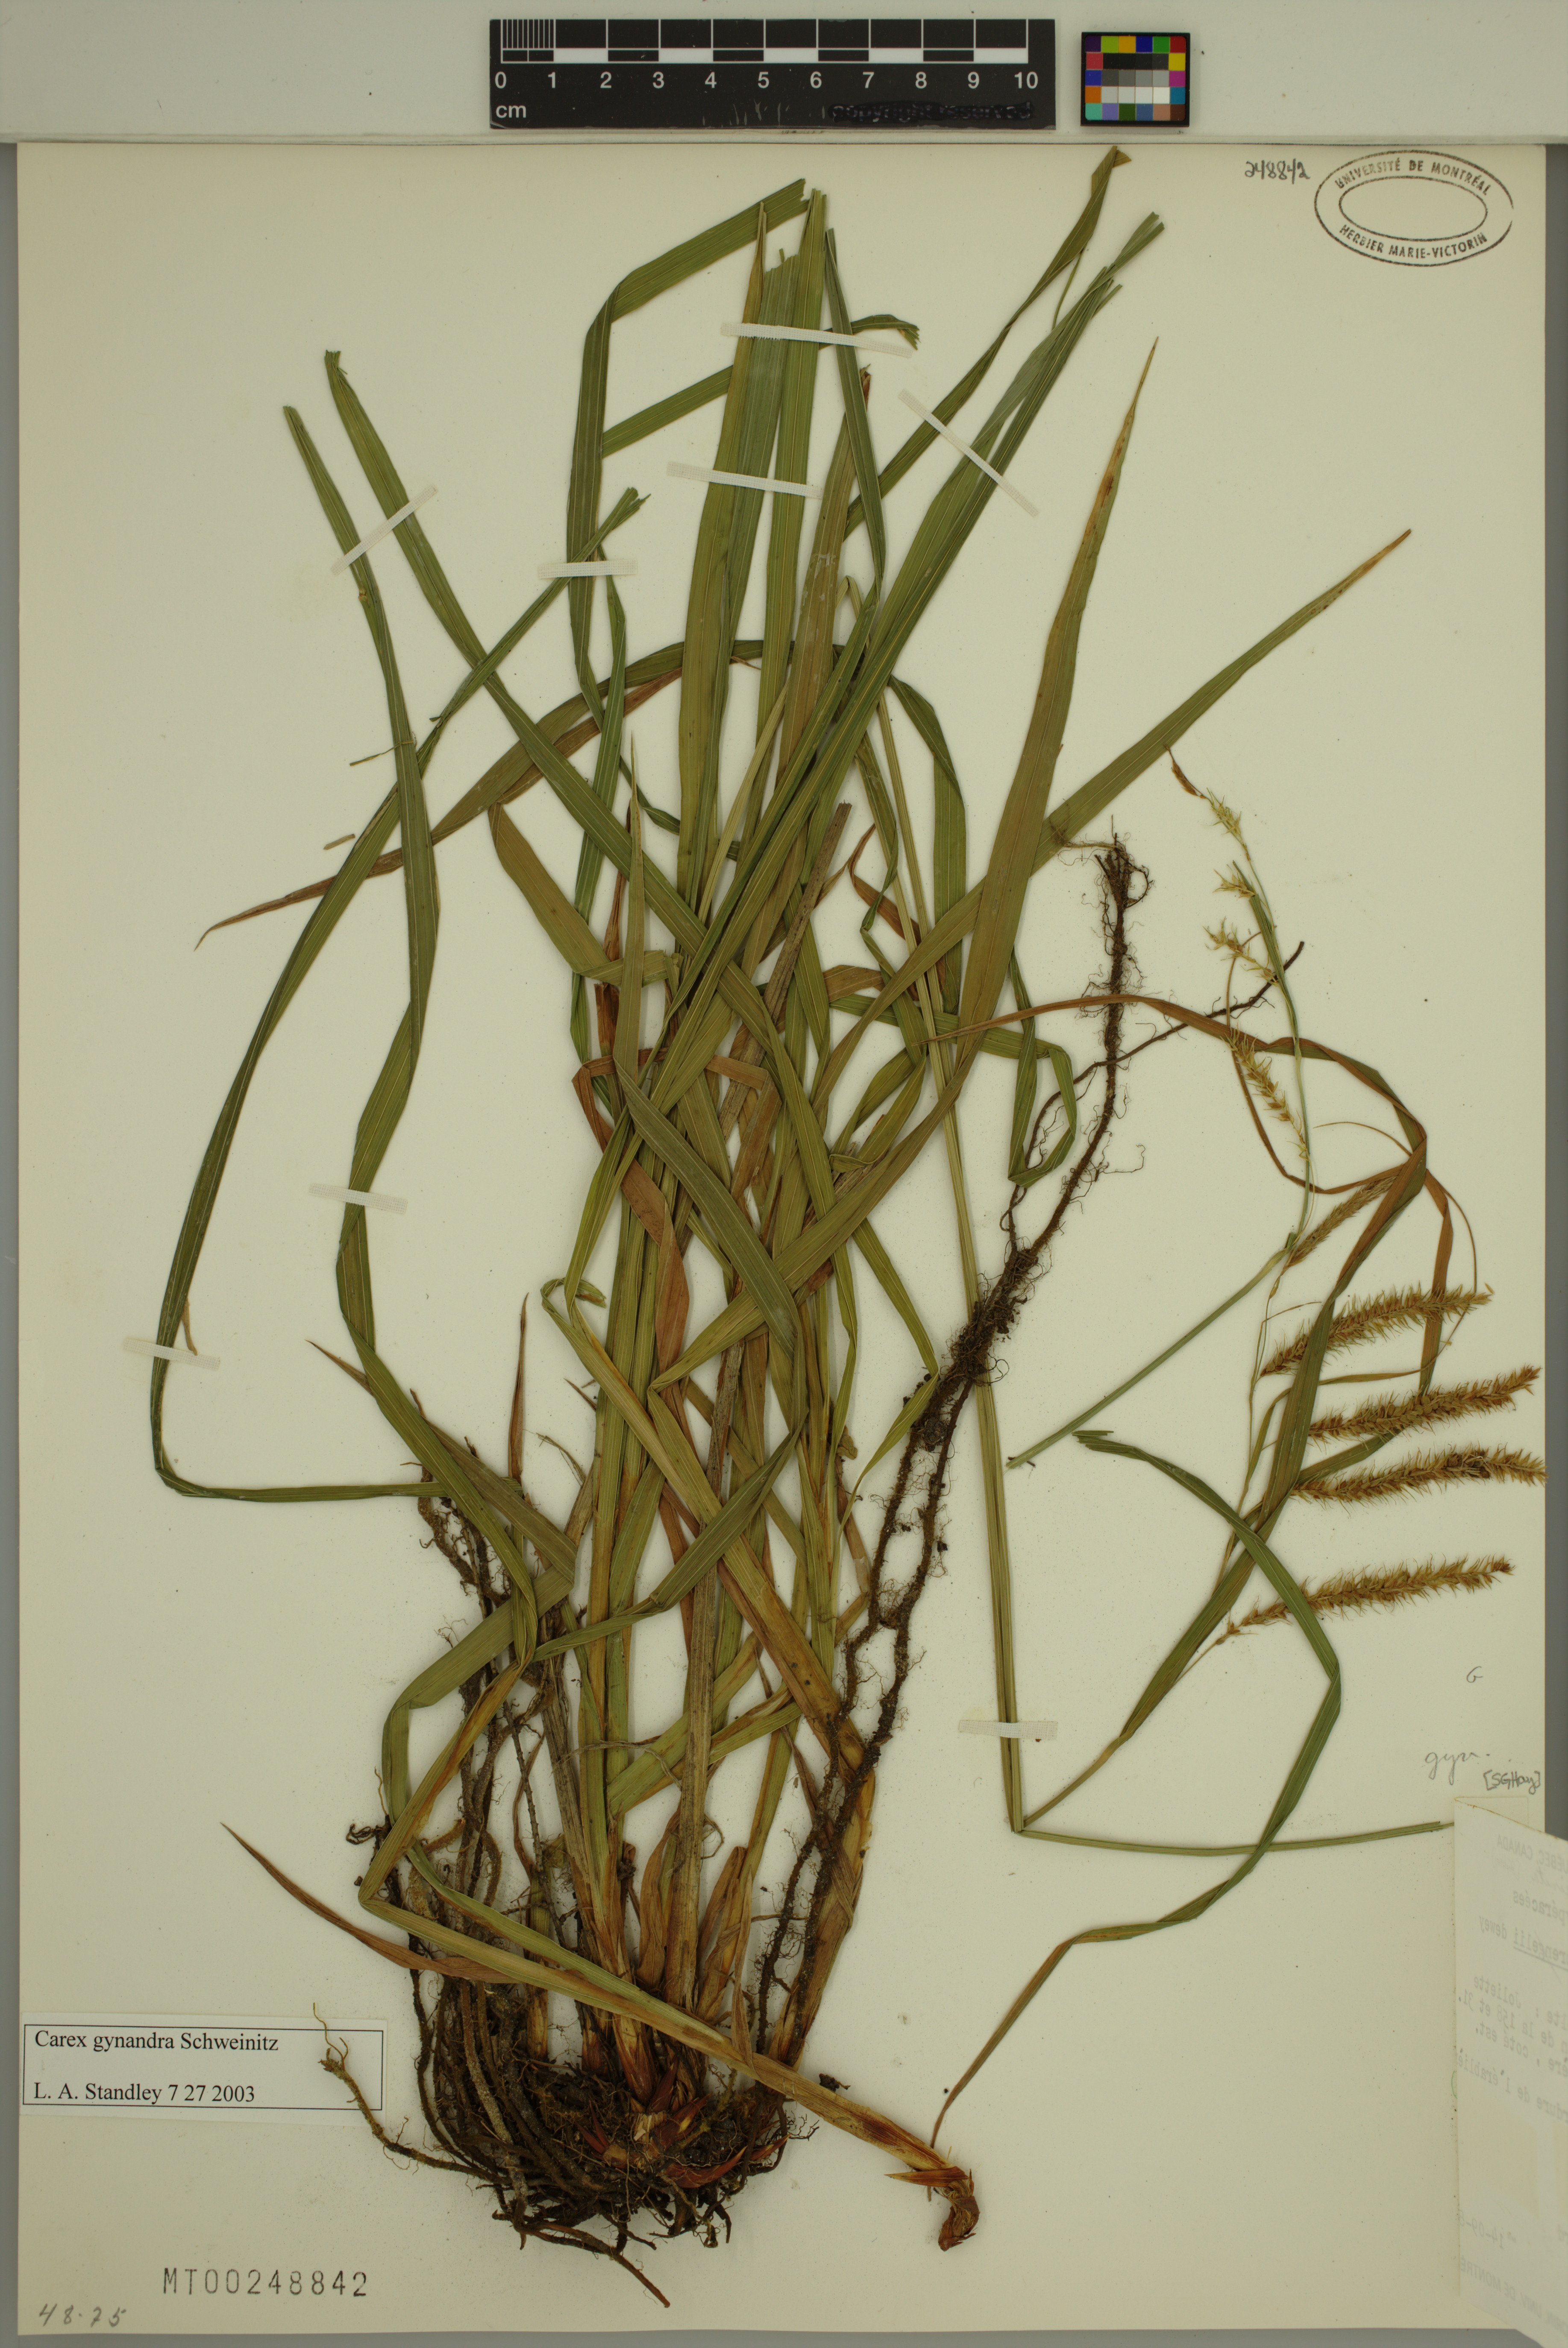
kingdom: Plantae
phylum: Tracheophyta
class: Liliopsida
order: Poales
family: Cyperaceae
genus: Carex
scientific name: Carex gynandra
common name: Nodding sedge
